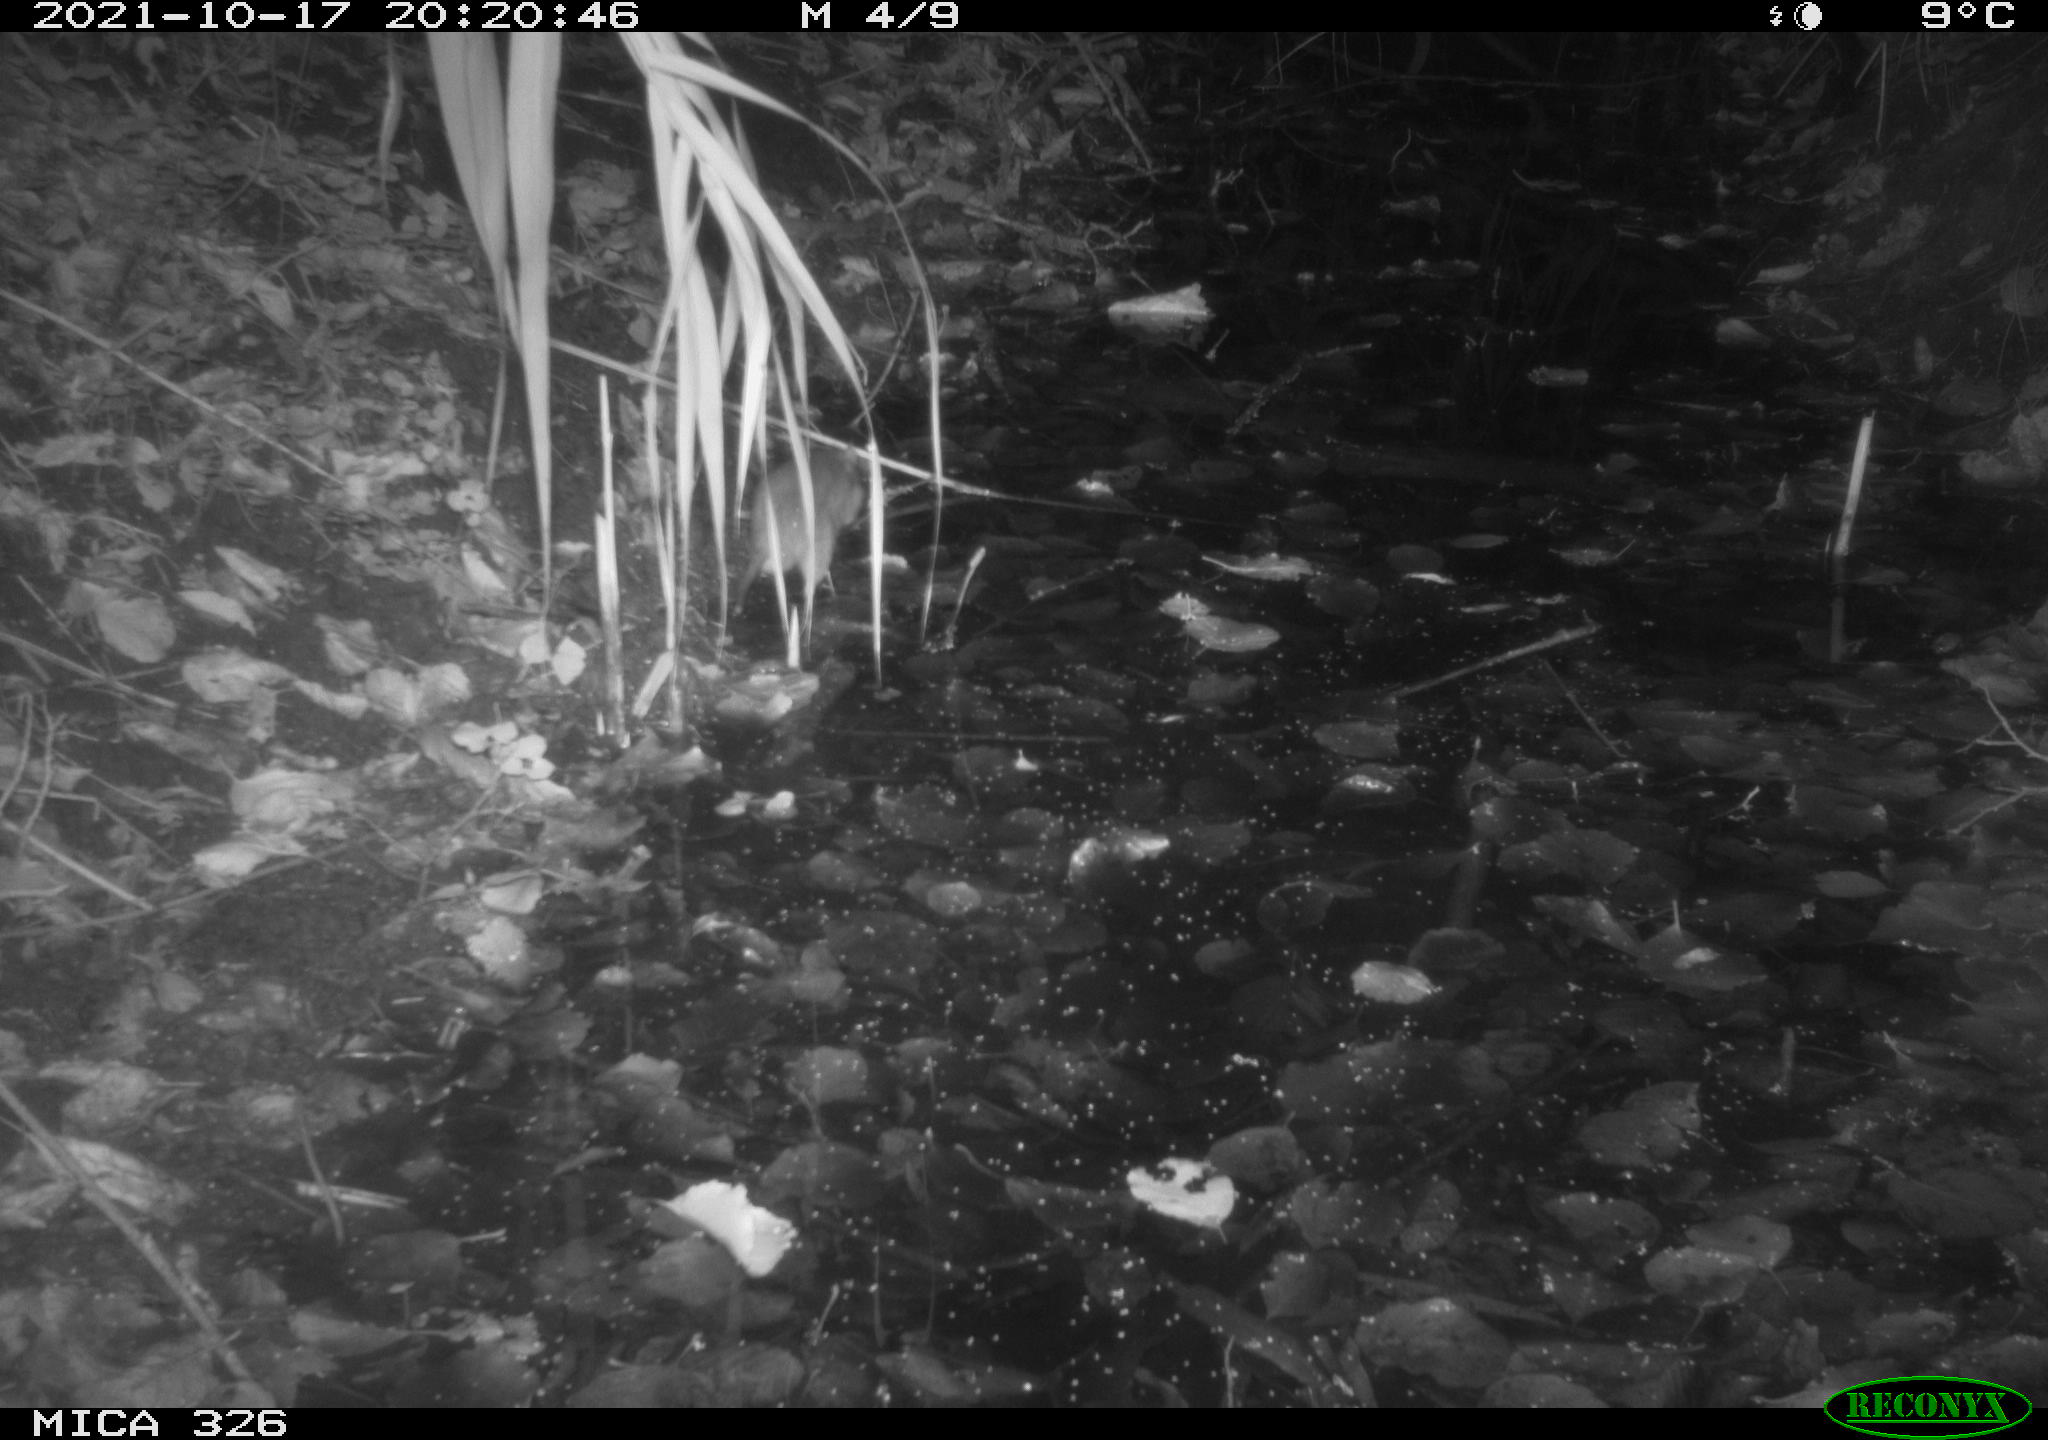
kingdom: Animalia
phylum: Chordata
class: Mammalia
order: Rodentia
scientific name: Rodentia
